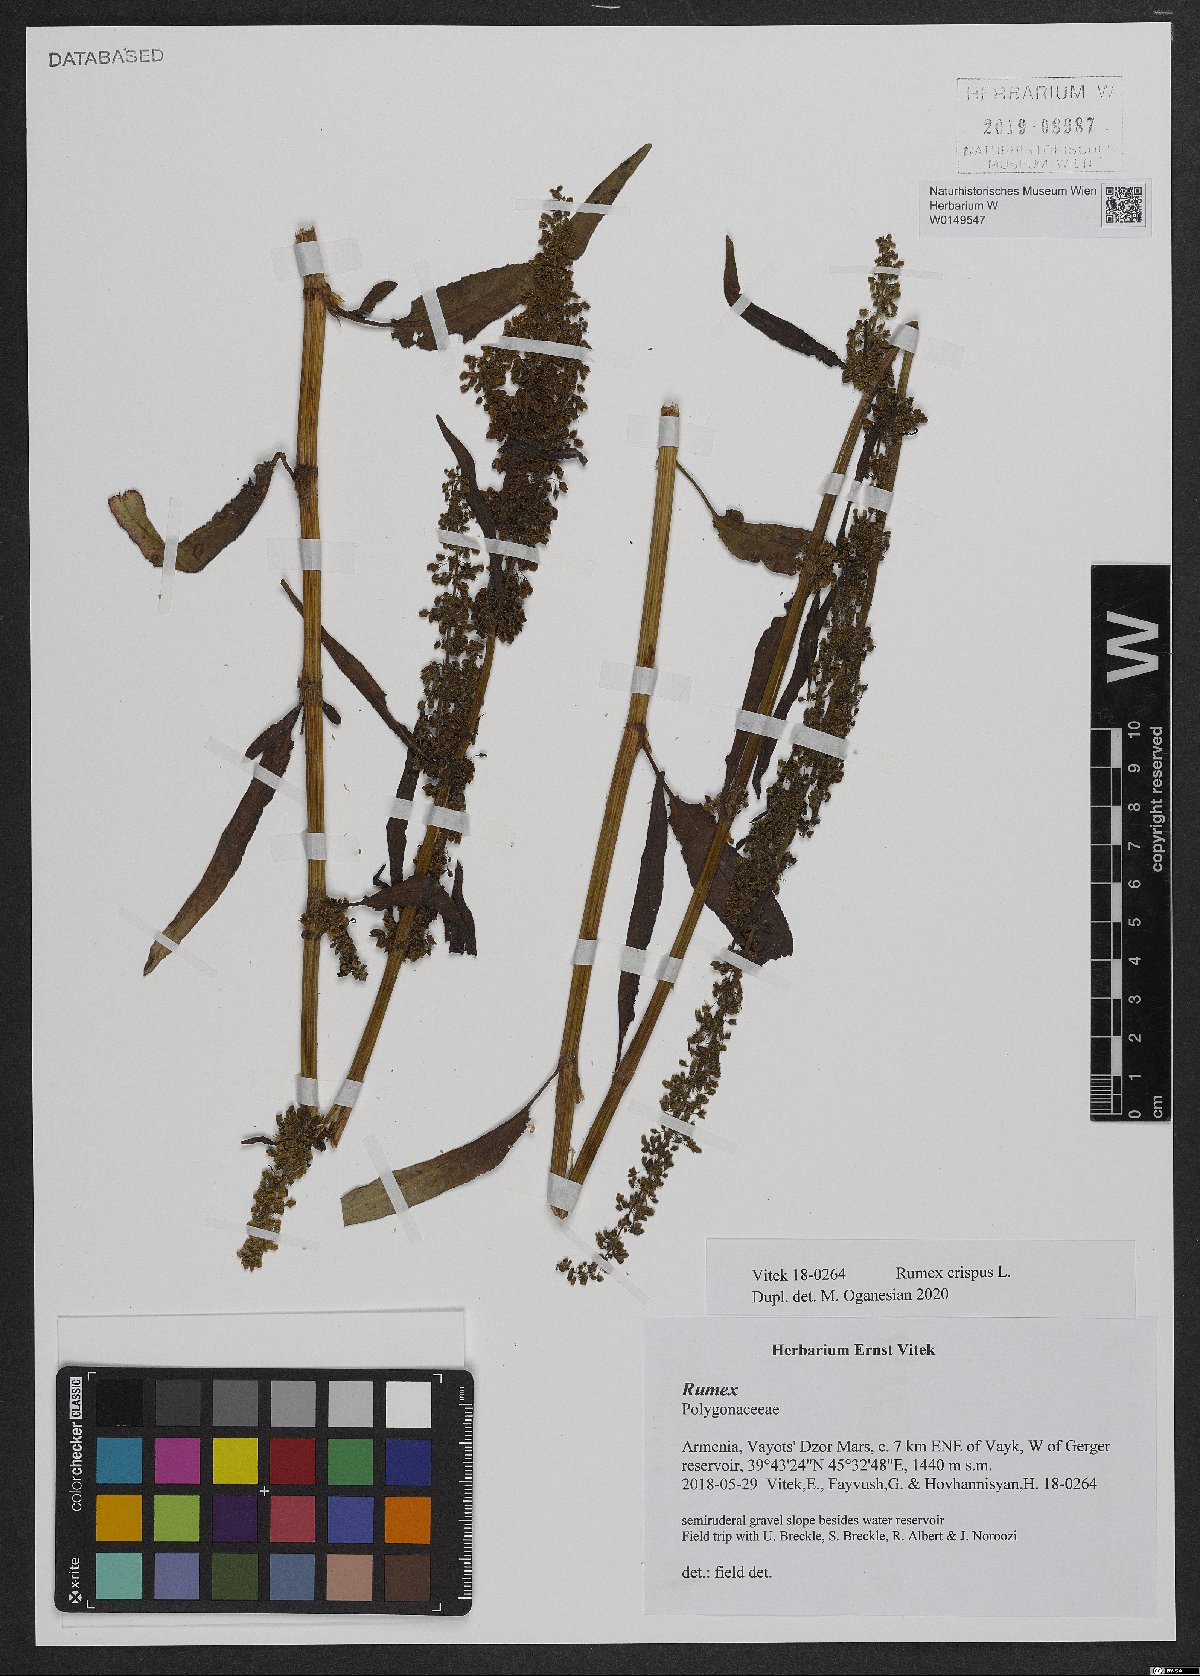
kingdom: Plantae
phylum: Tracheophyta
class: Magnoliopsida
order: Caryophyllales
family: Polygonaceae
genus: Rumex
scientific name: Rumex crispus
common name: Curled dock
